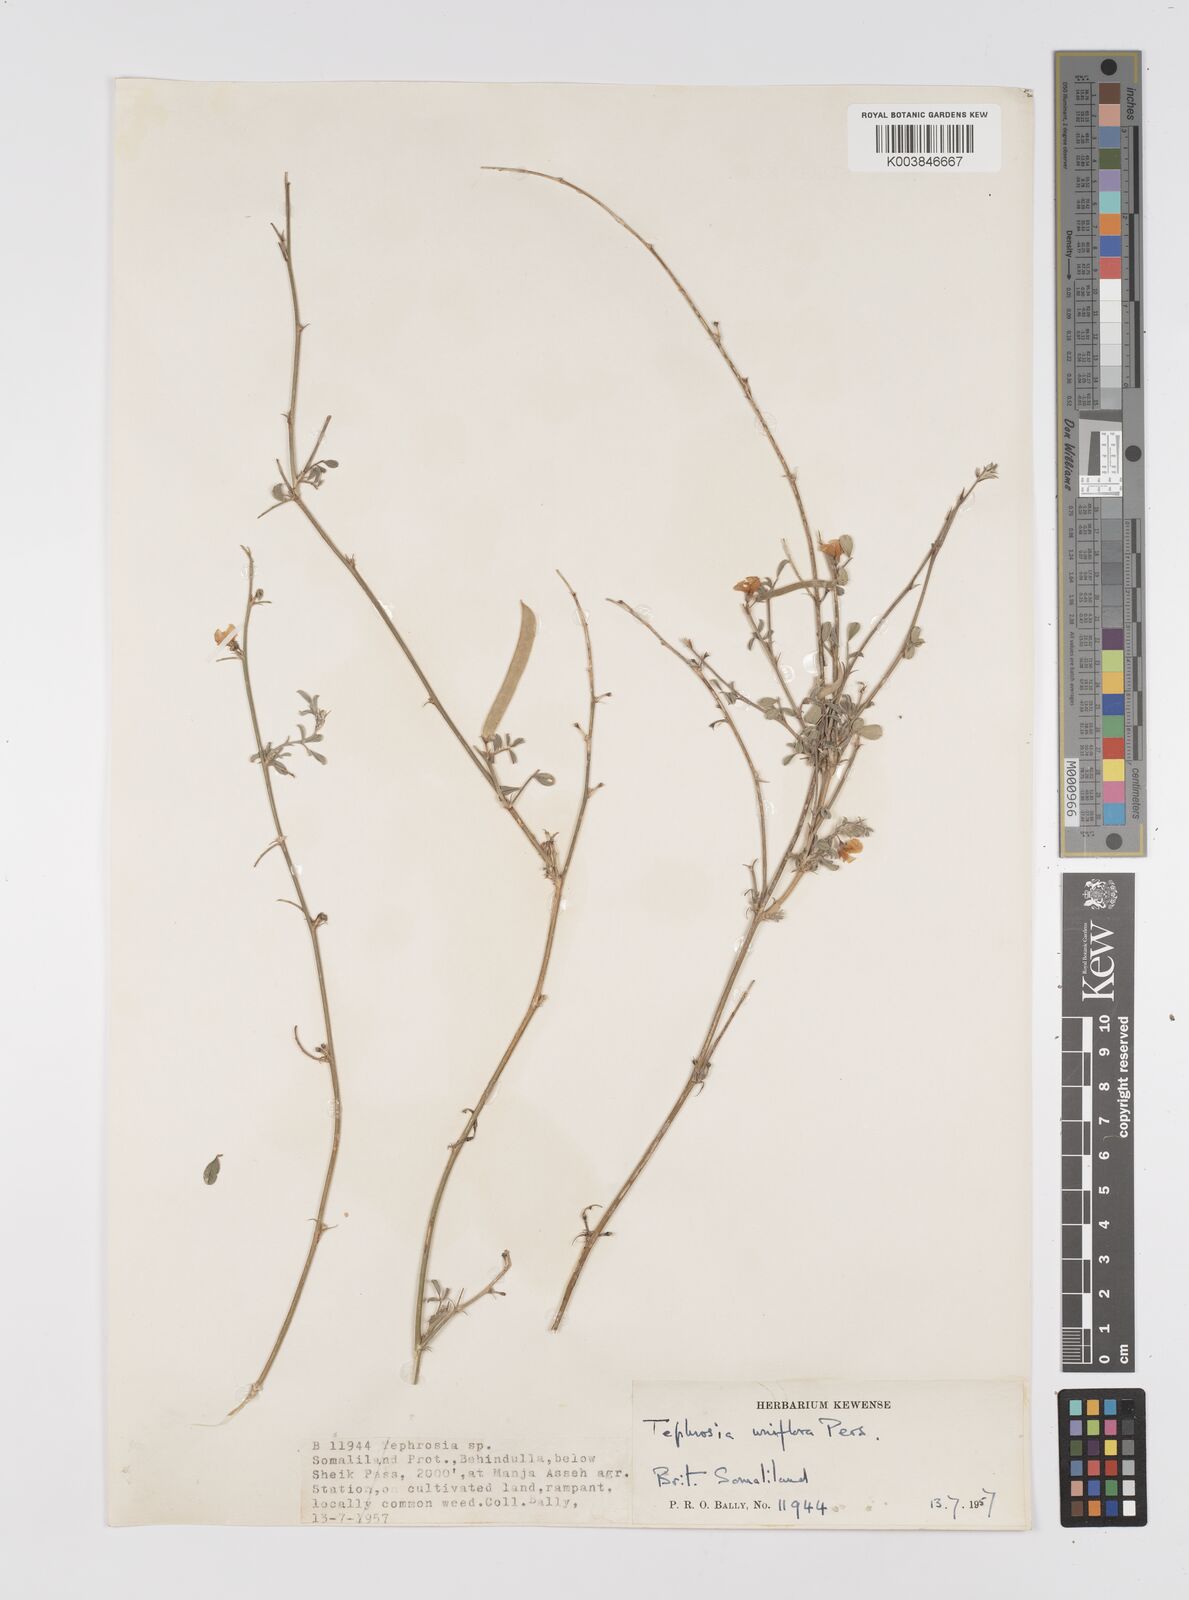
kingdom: Plantae
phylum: Tracheophyta
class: Magnoliopsida
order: Fabales
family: Fabaceae
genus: Tephrosia
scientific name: Tephrosia uniflora
